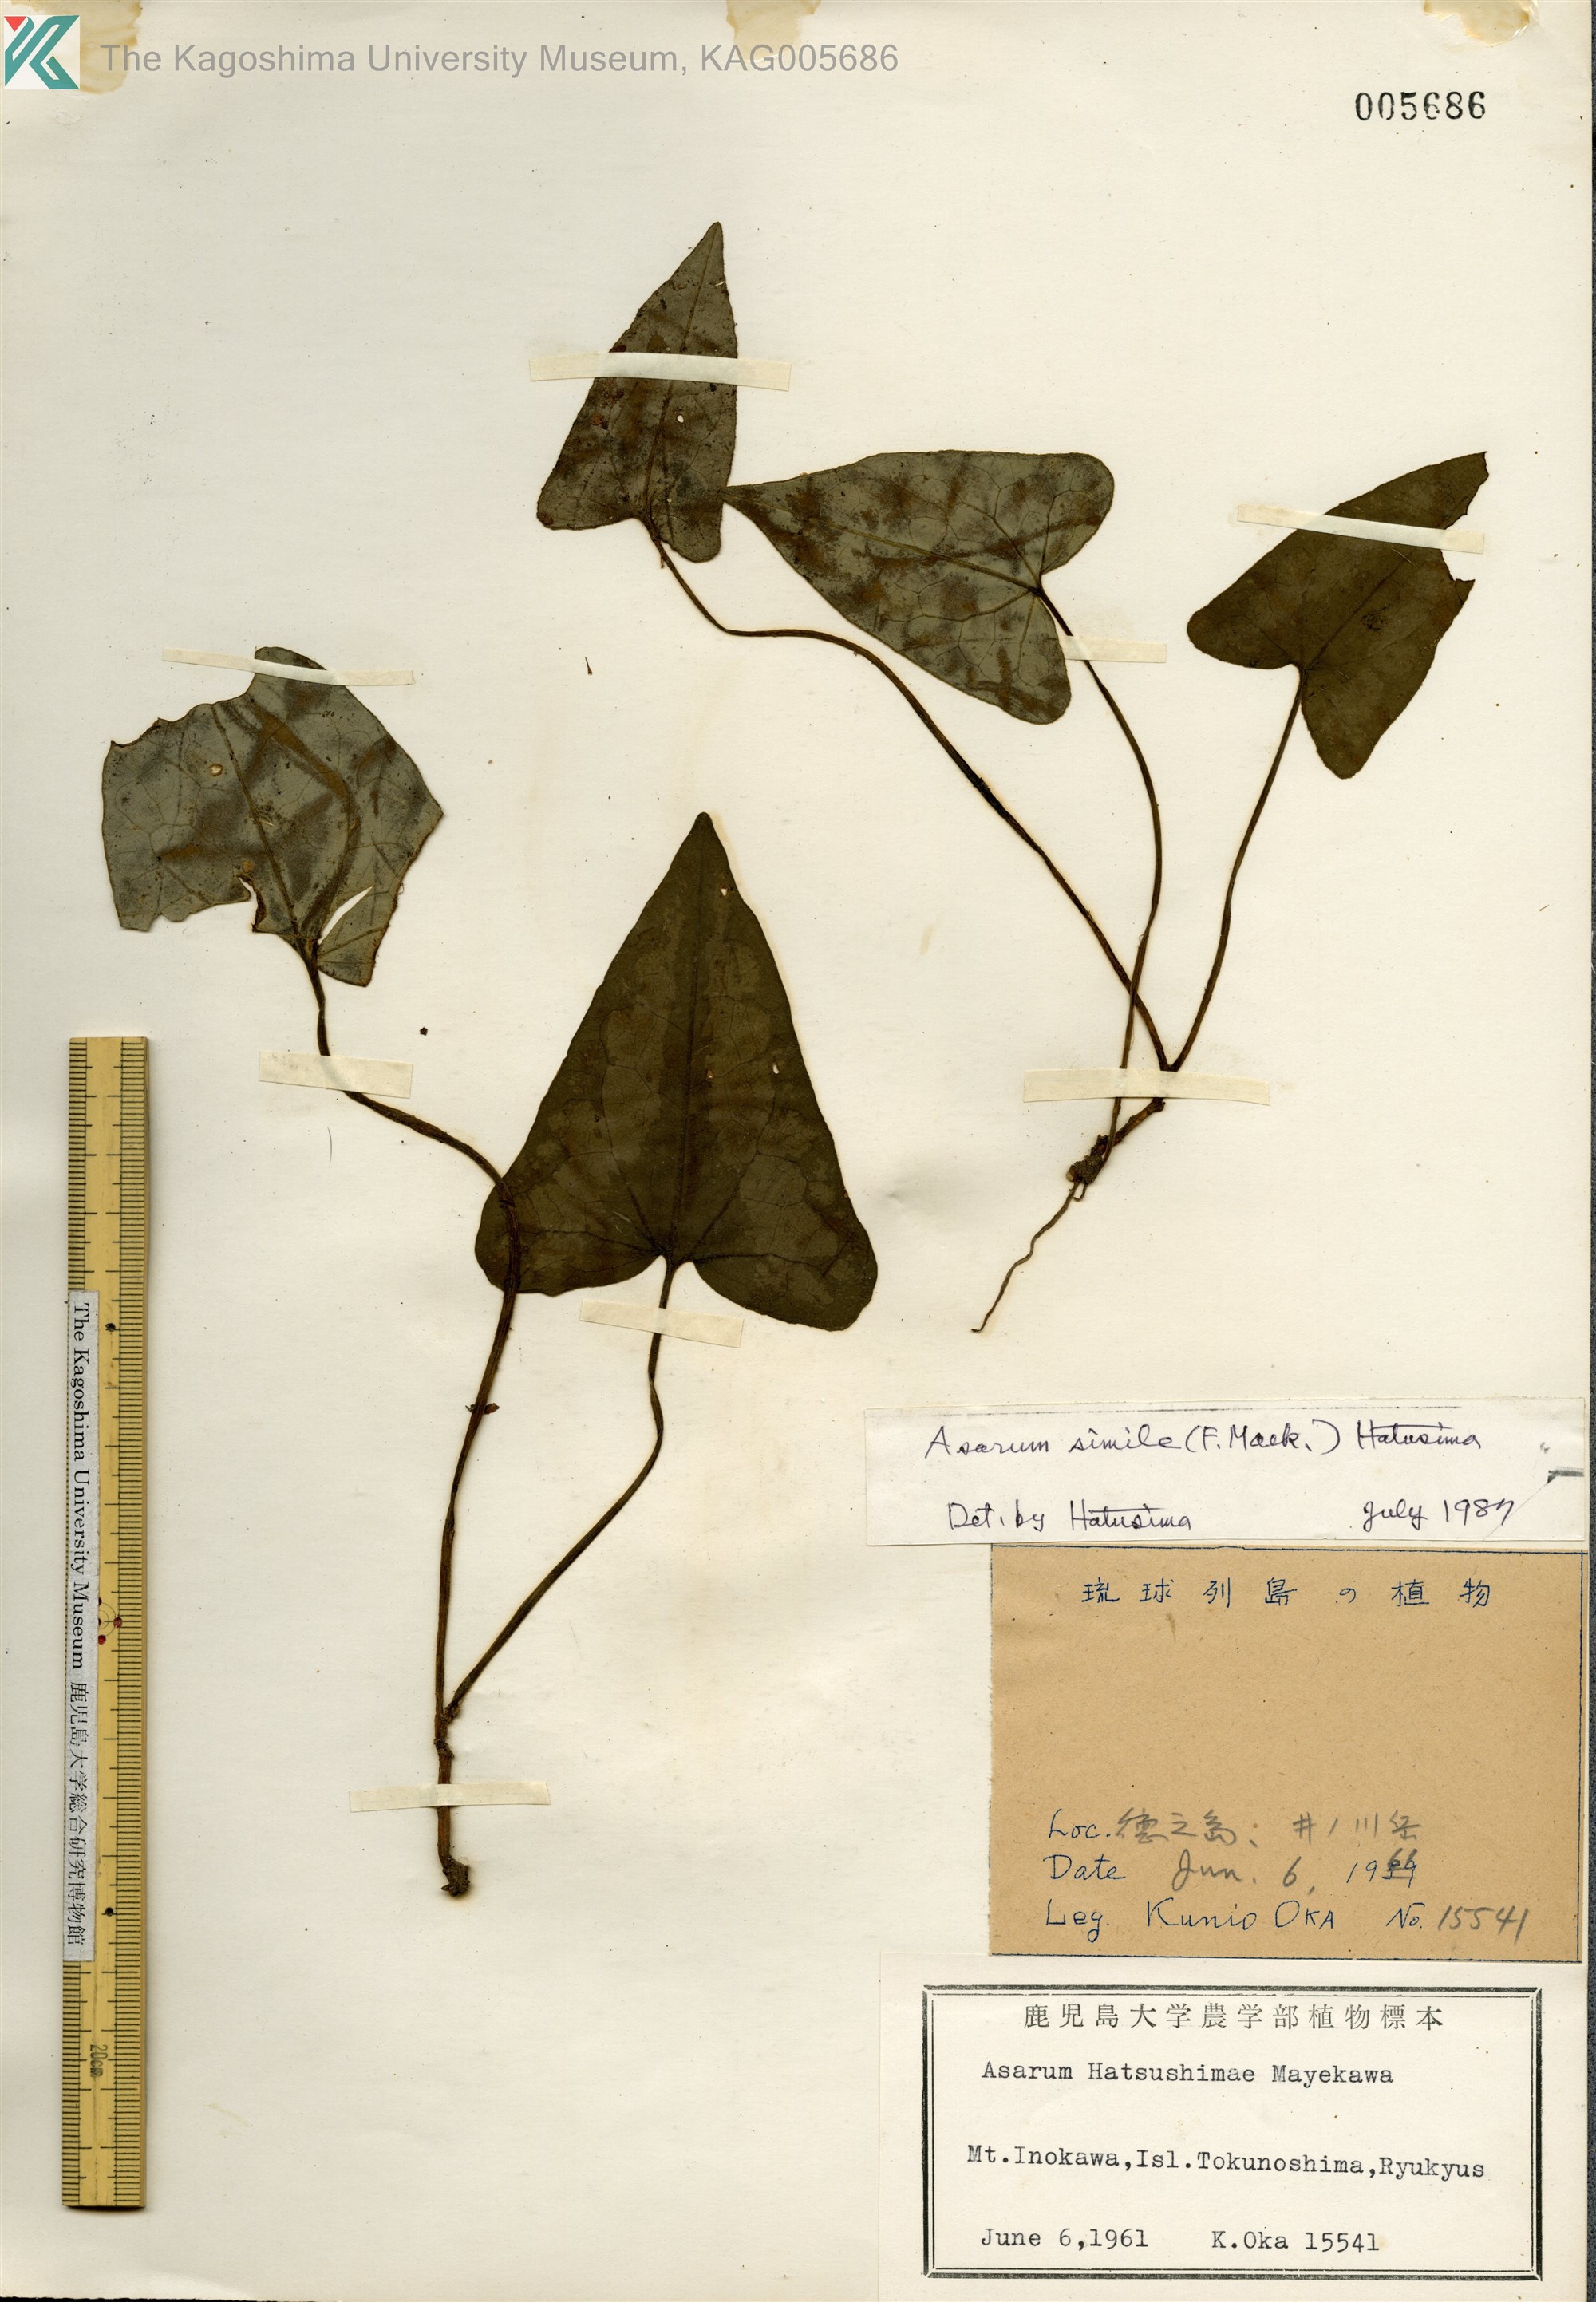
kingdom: Plantae
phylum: Tracheophyta
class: Magnoliopsida
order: Piperales
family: Aristolochiaceae
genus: Asarum
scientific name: Asarum simile
